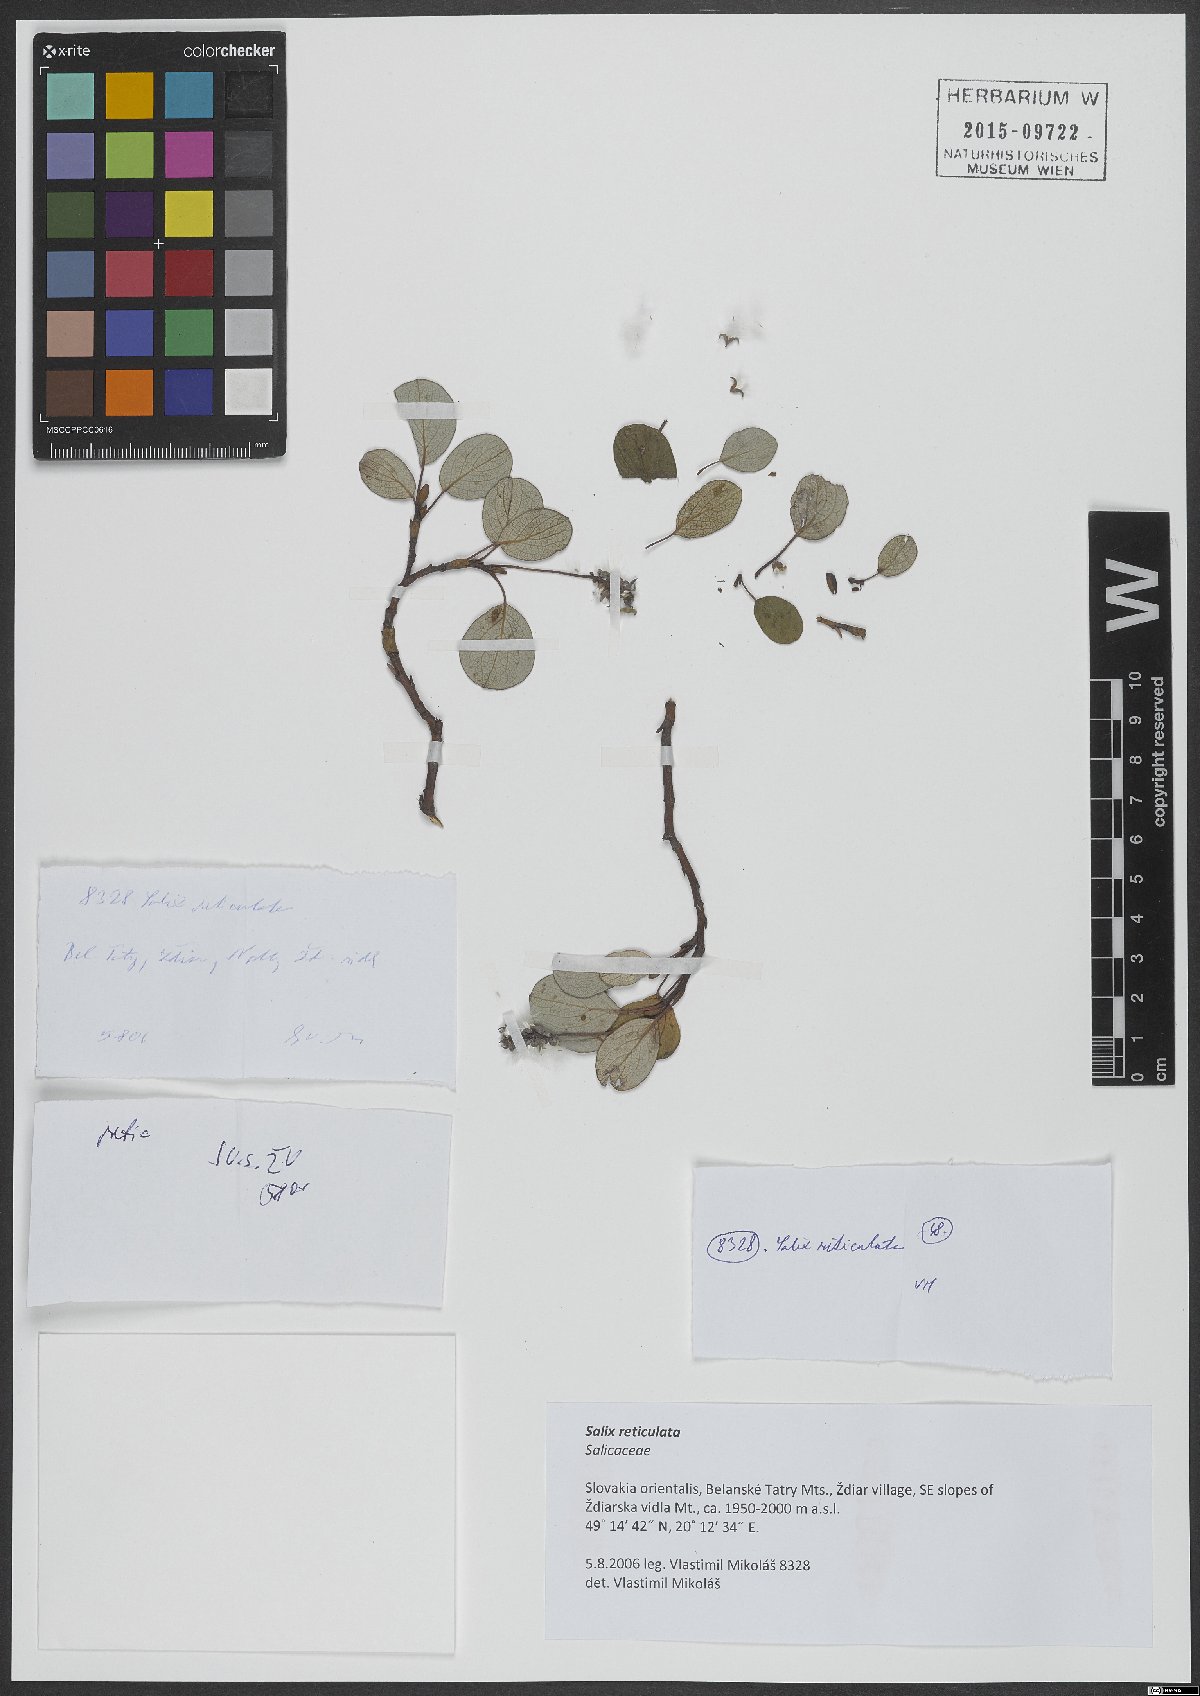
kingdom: Plantae
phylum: Tracheophyta
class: Magnoliopsida
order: Malpighiales
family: Salicaceae
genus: Salix
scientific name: Salix reticulata
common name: Net-leaved willow
